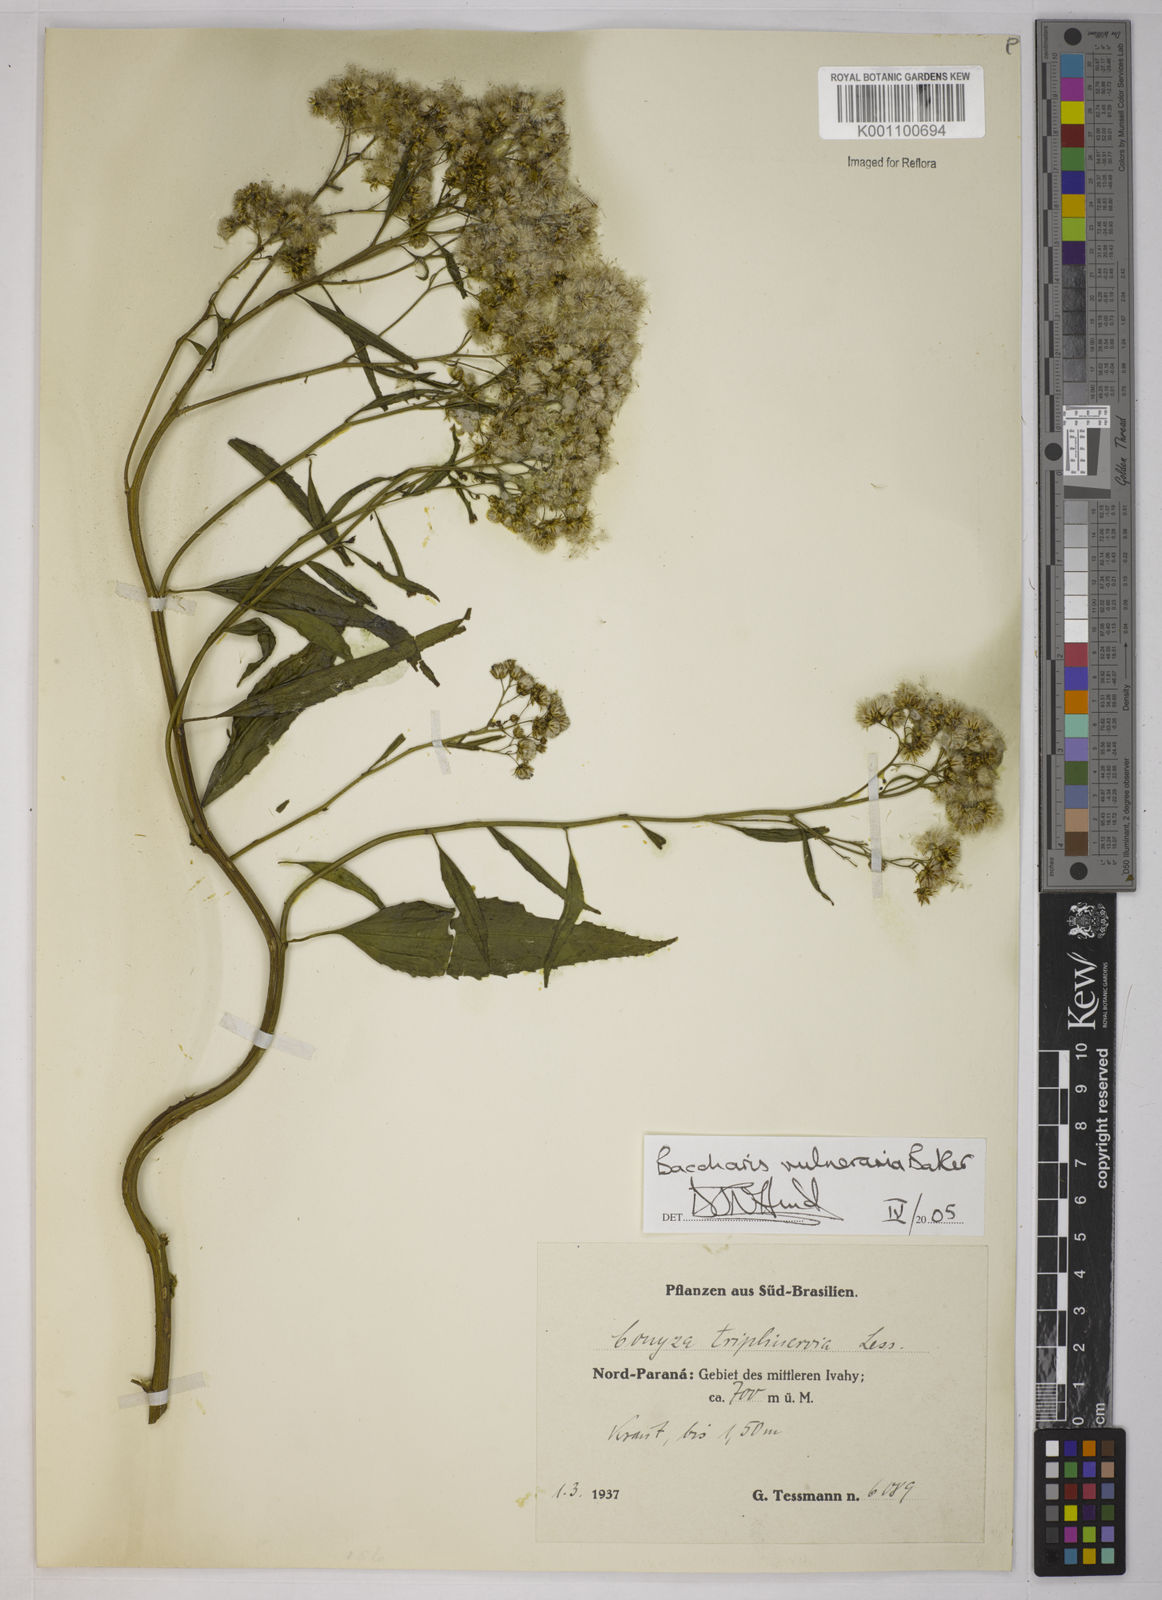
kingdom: Plantae
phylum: Tracheophyta
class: Magnoliopsida
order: Asterales
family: Asteraceae
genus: Archibaccharis
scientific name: Archibaccharis vulneraria
